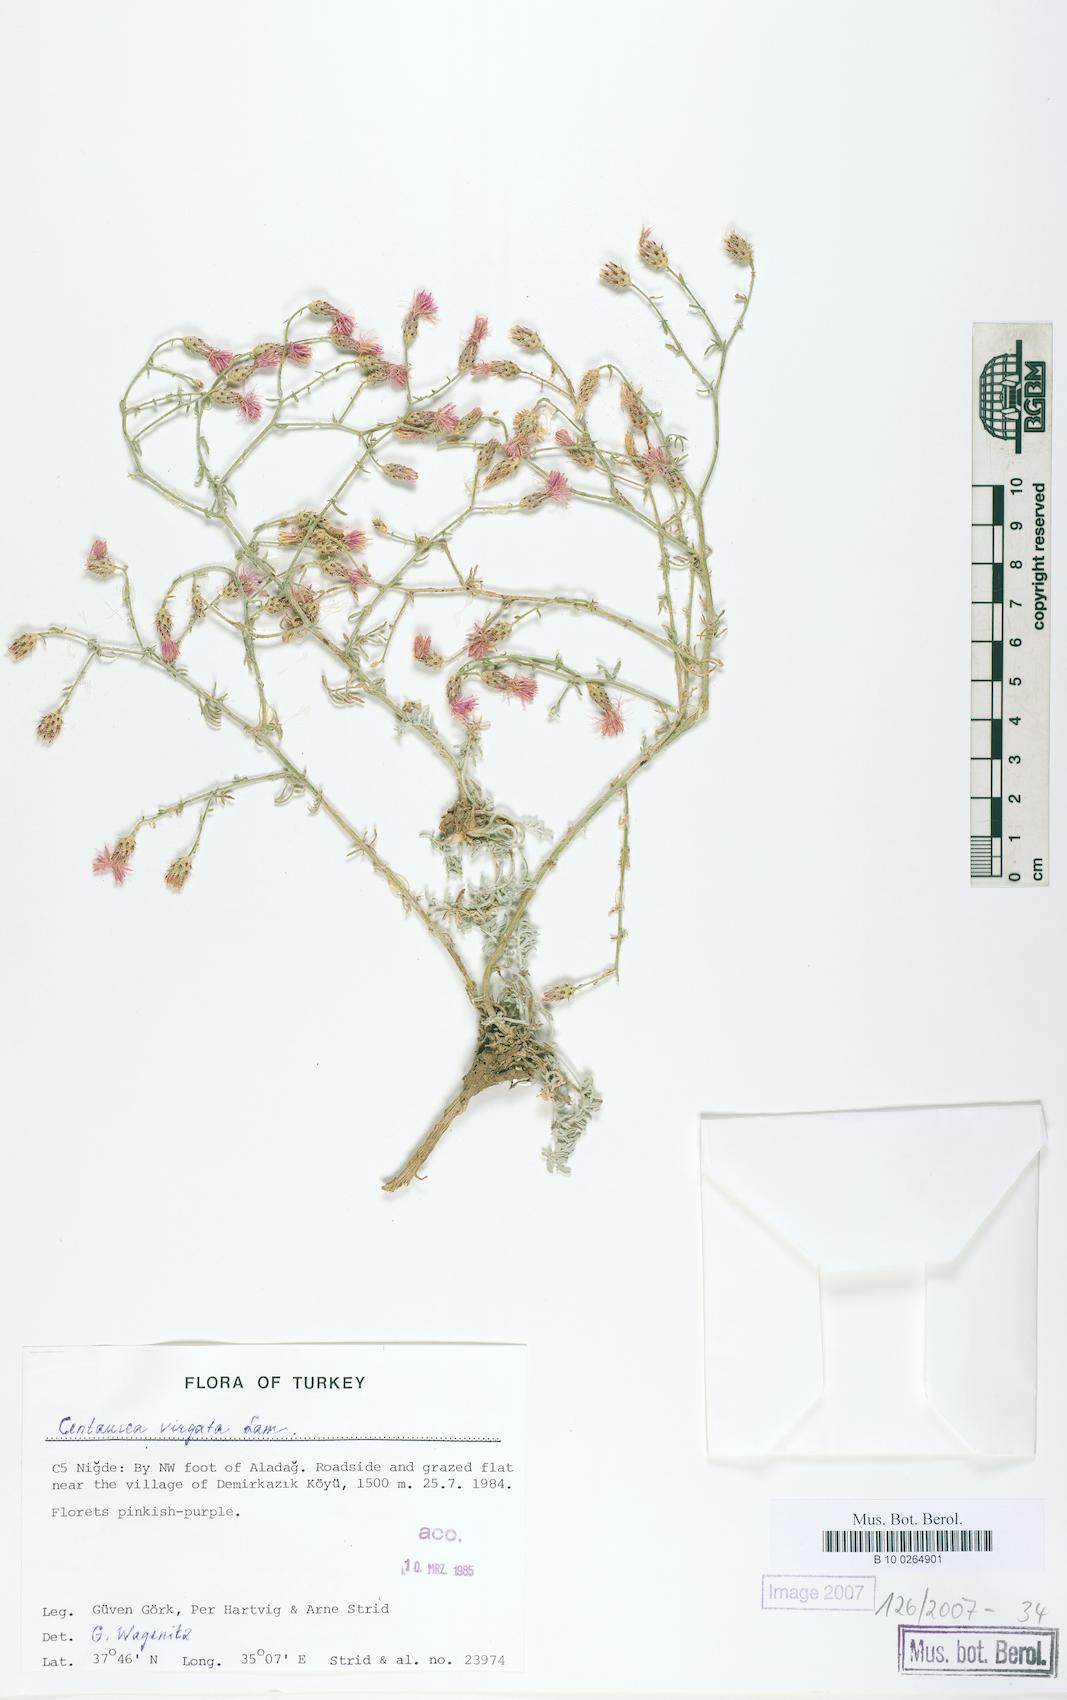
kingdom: Plantae
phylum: Tracheophyta
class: Magnoliopsida
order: Asterales
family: Asteraceae
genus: Centaurea
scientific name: Centaurea virgata
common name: Squarrose knapweed
